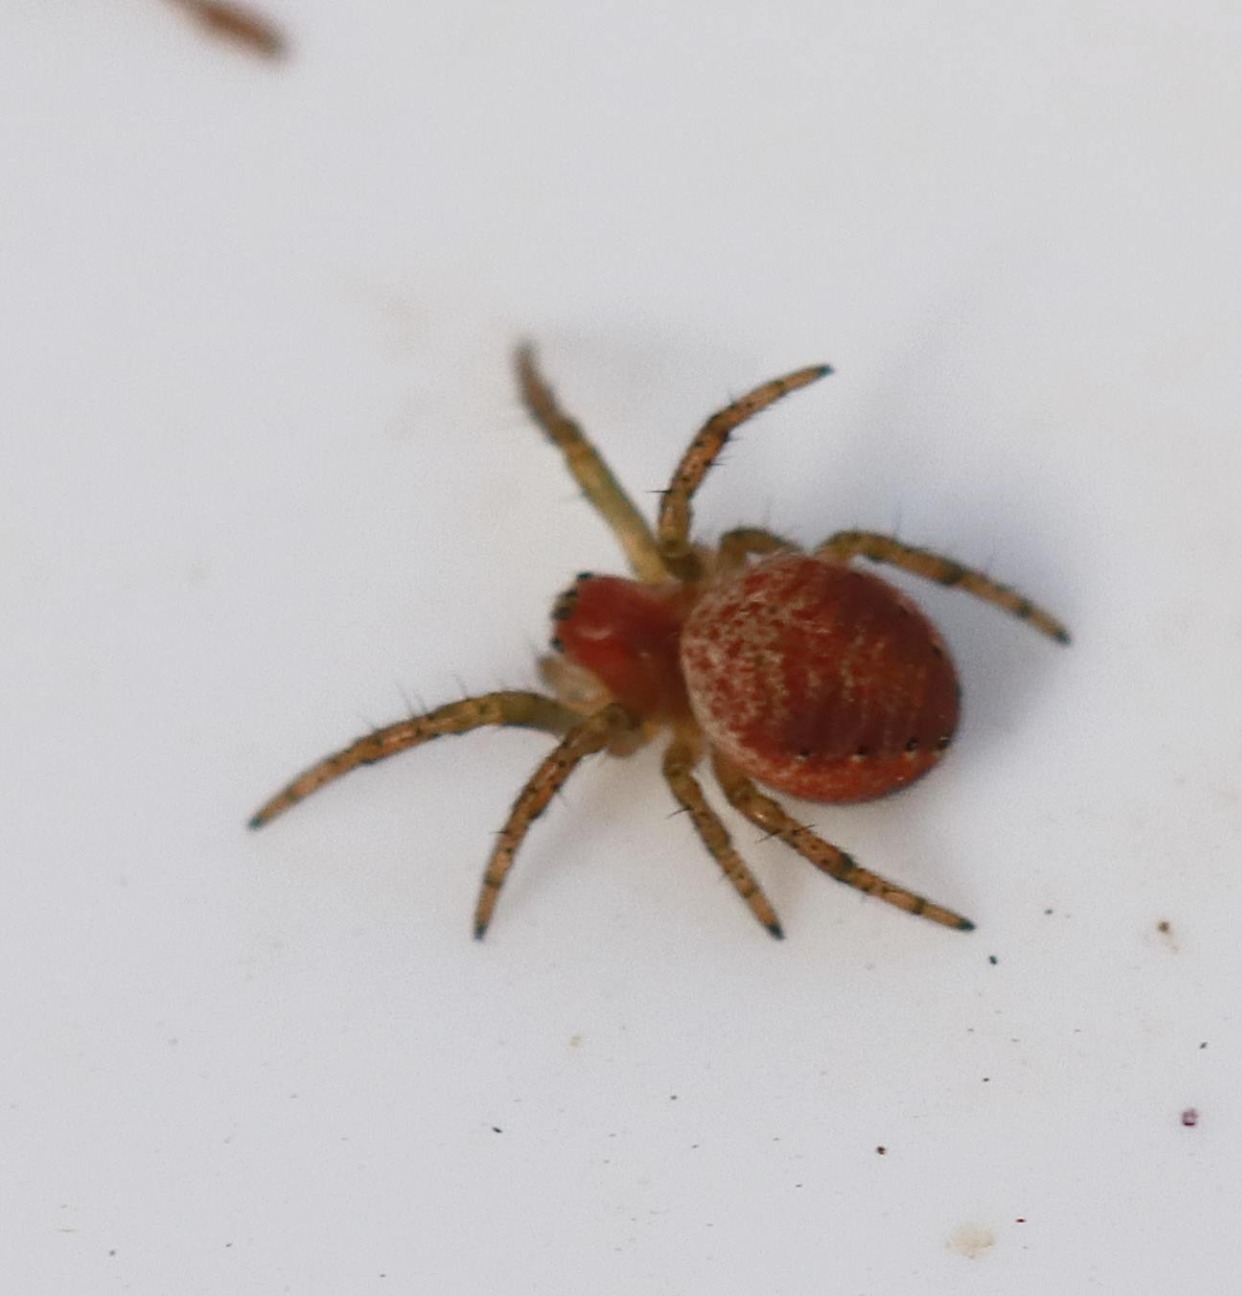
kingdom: Animalia
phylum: Arthropoda
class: Arachnida
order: Araneae
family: Araneidae
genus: Araniella
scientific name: Araniella
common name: Agurkeedderkopslægten
